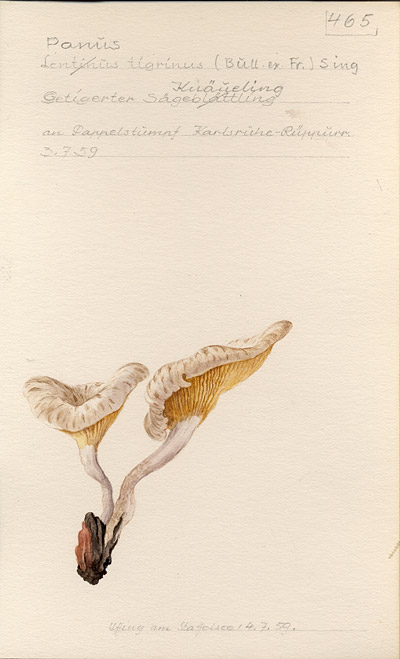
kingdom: Fungi
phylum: Basidiomycota
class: Agaricomycetes
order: Polyporales
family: Polyporaceae
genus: Lentinus
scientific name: Lentinus tigrinus
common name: Tiger sawgill
